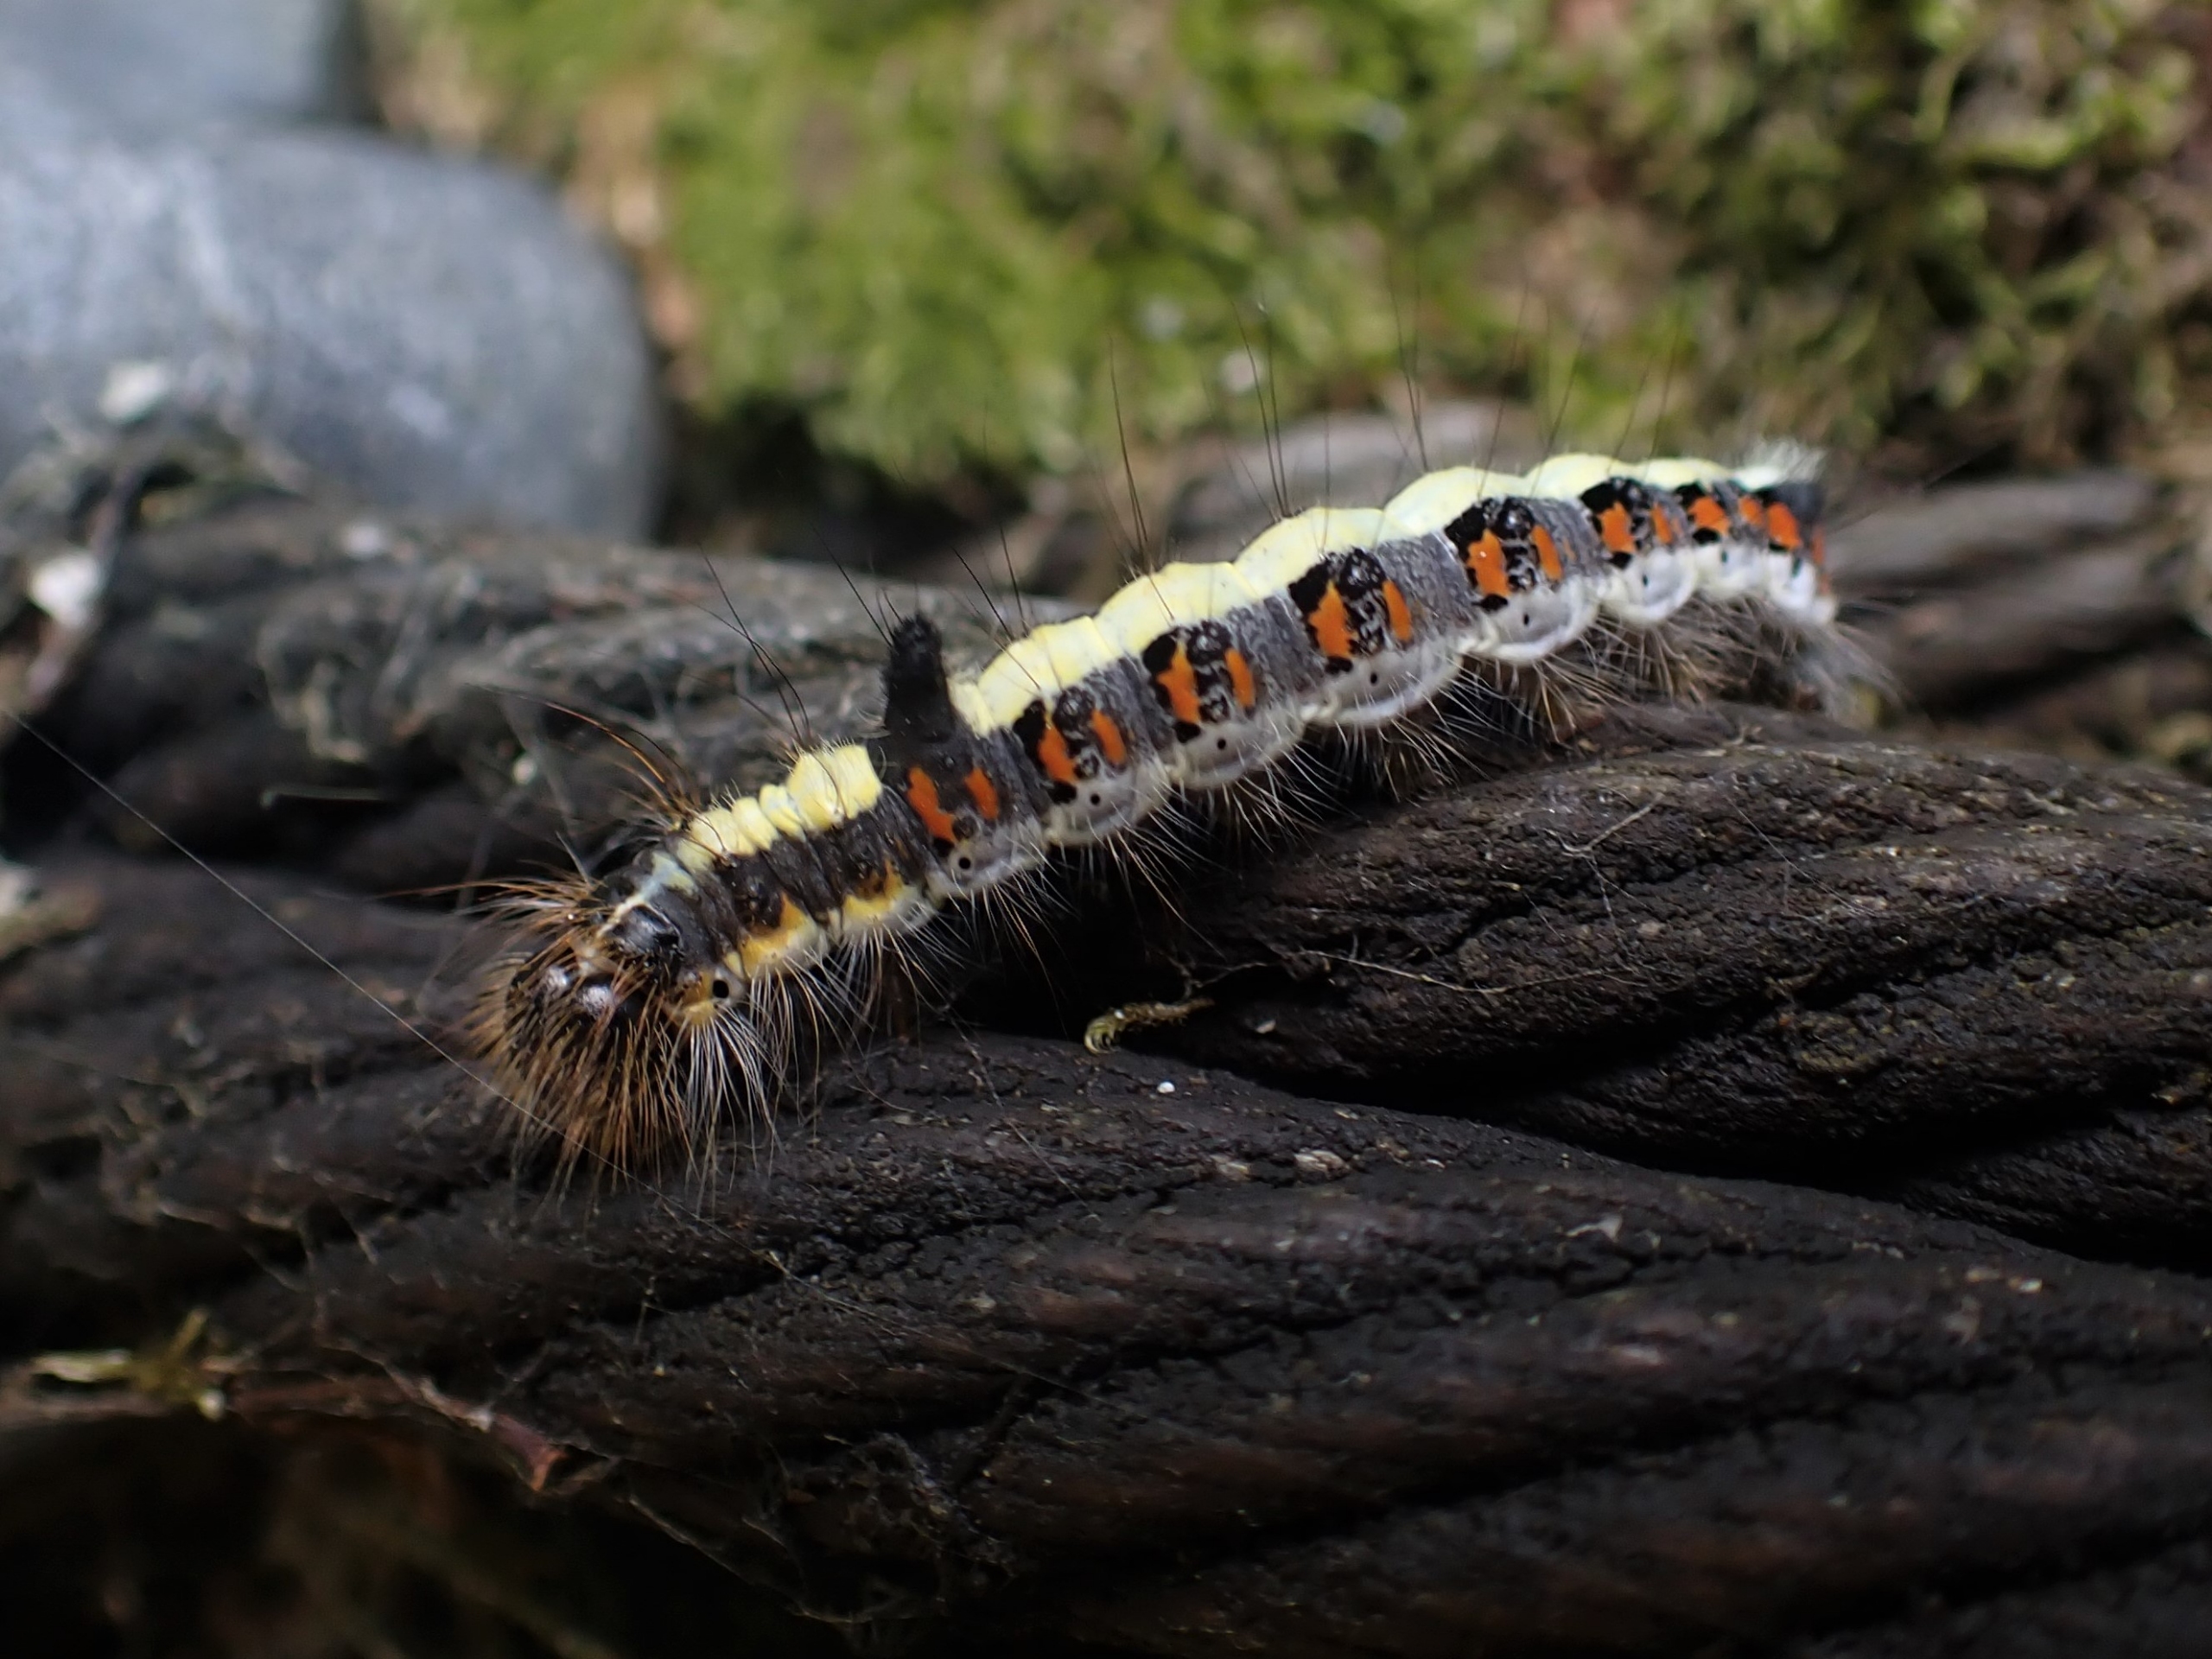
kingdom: Animalia
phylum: Arthropoda
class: Insecta
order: Lepidoptera
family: Noctuidae
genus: Acronicta
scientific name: Acronicta psi
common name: Psi-ugle
